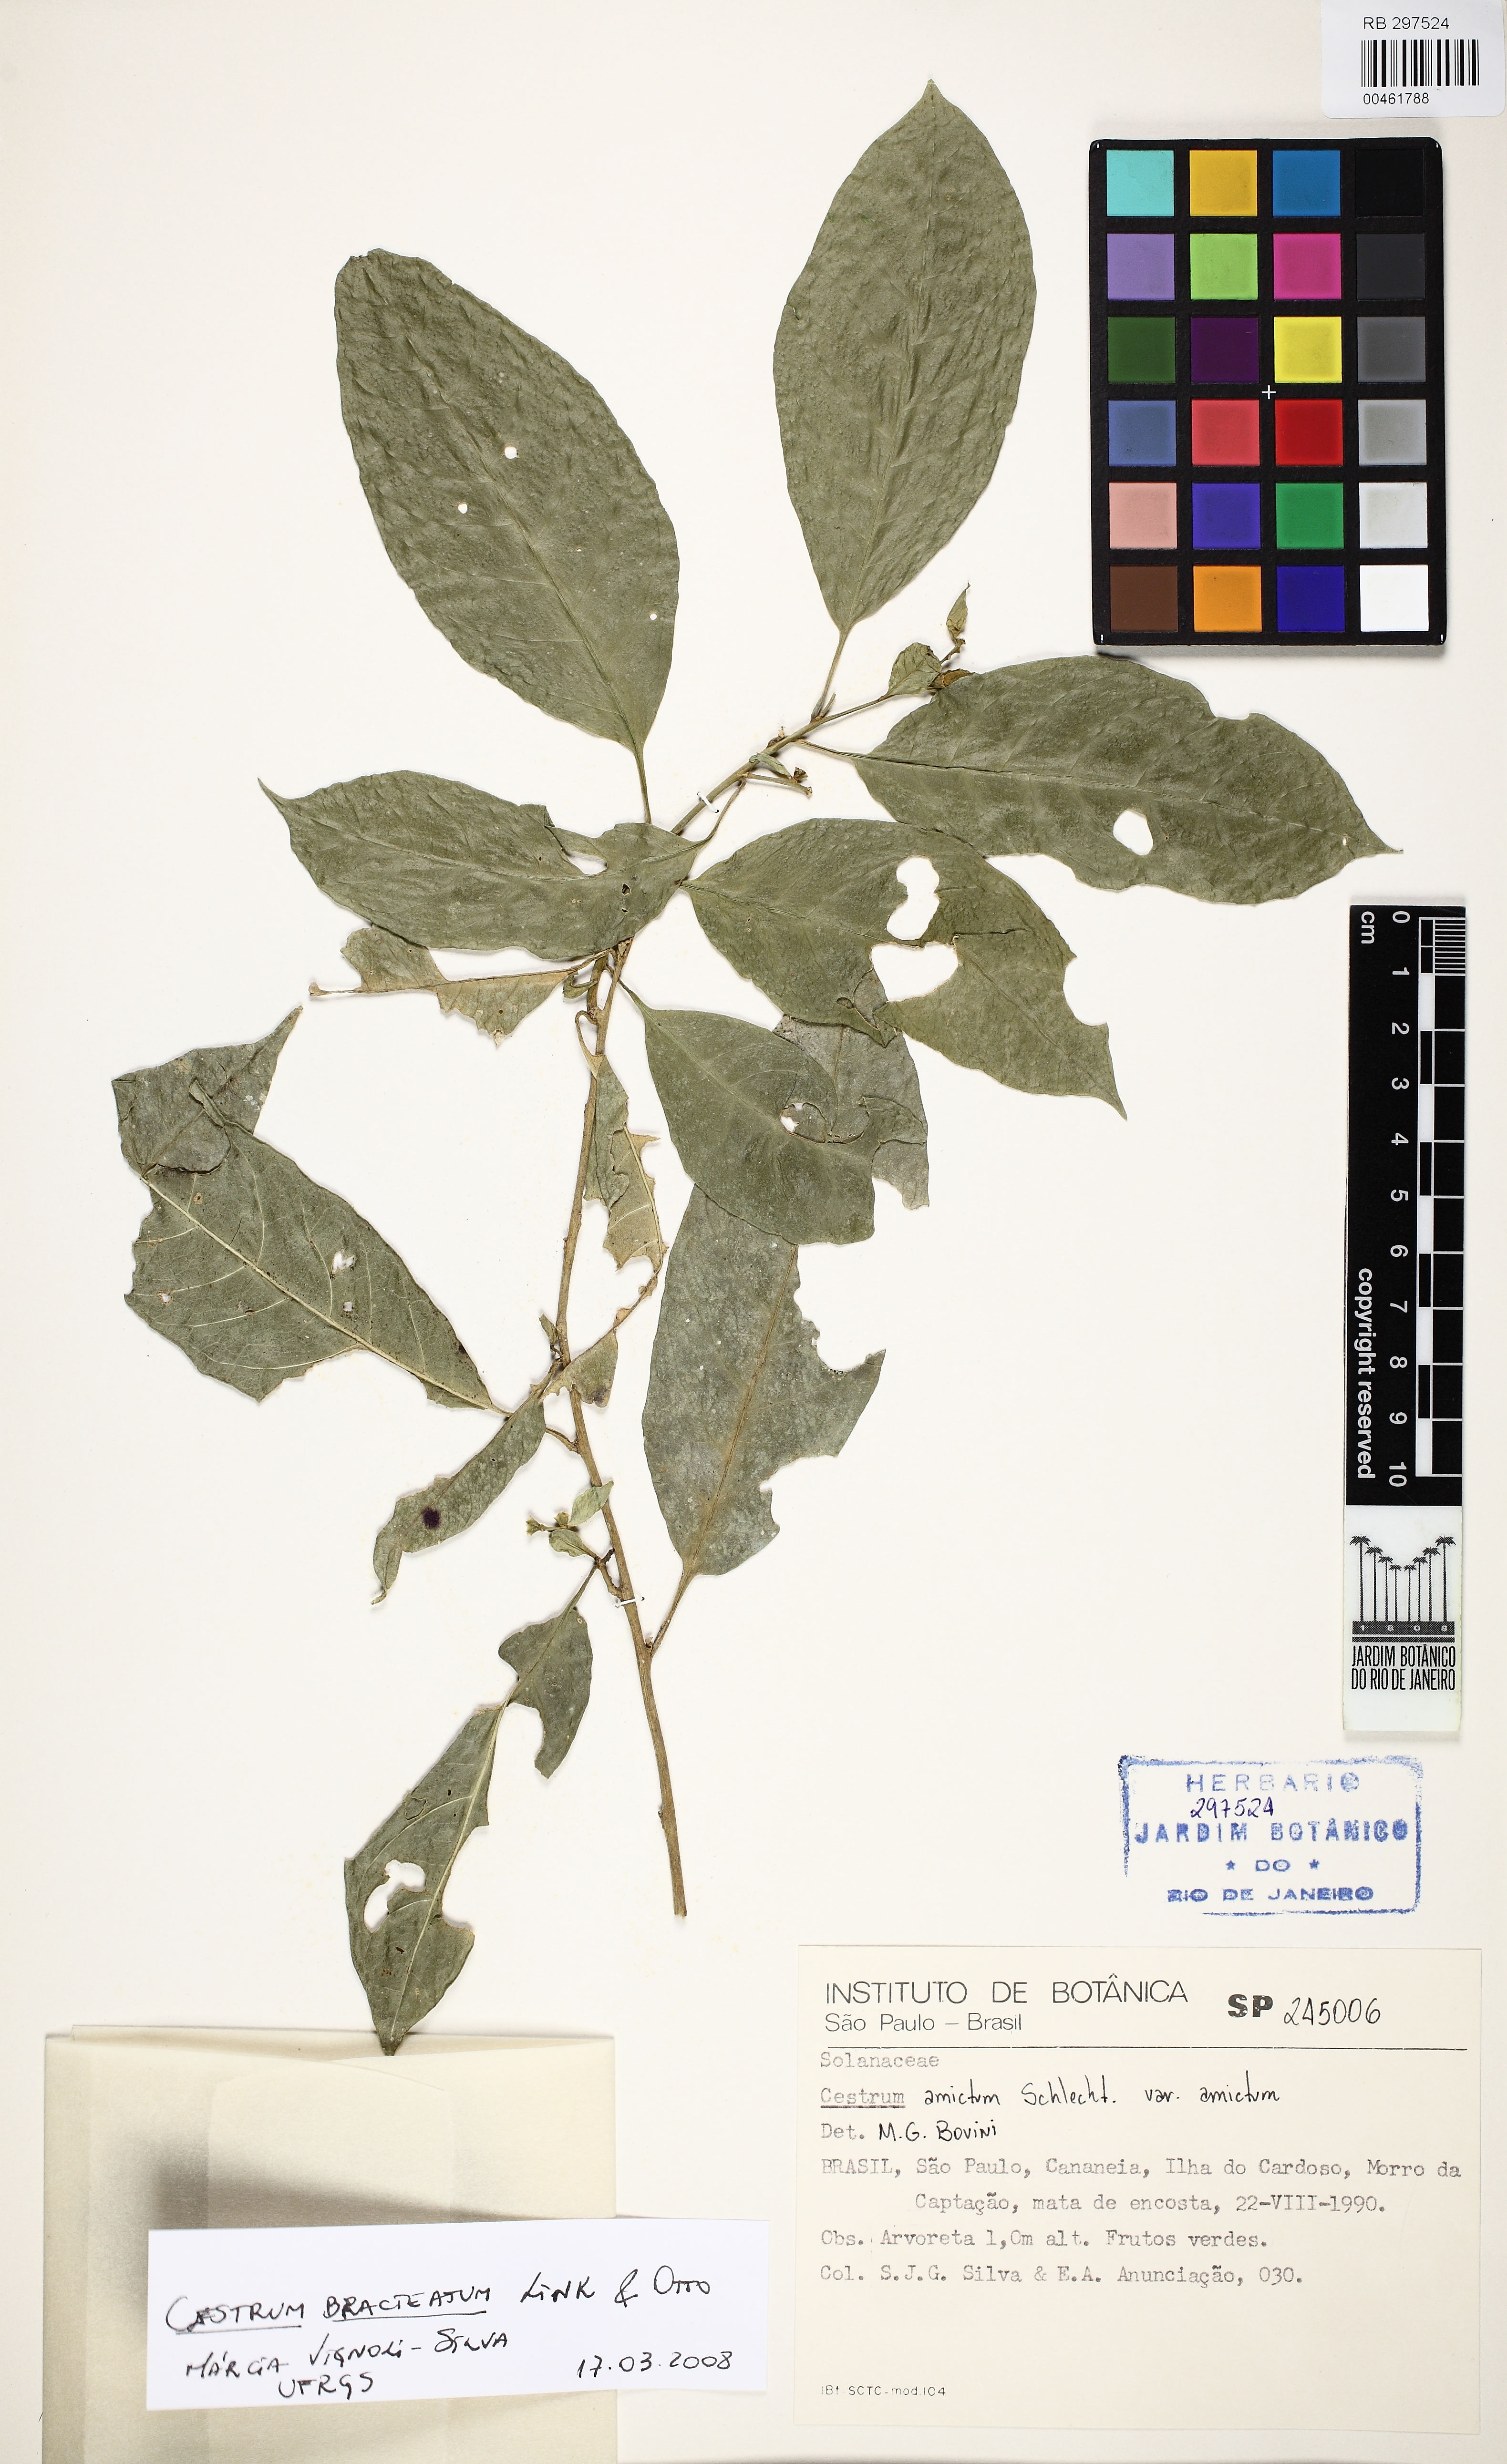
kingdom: Plantae
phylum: Tracheophyta
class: Magnoliopsida
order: Solanales
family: Solanaceae
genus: Cestrum
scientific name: Cestrum bracteatum
